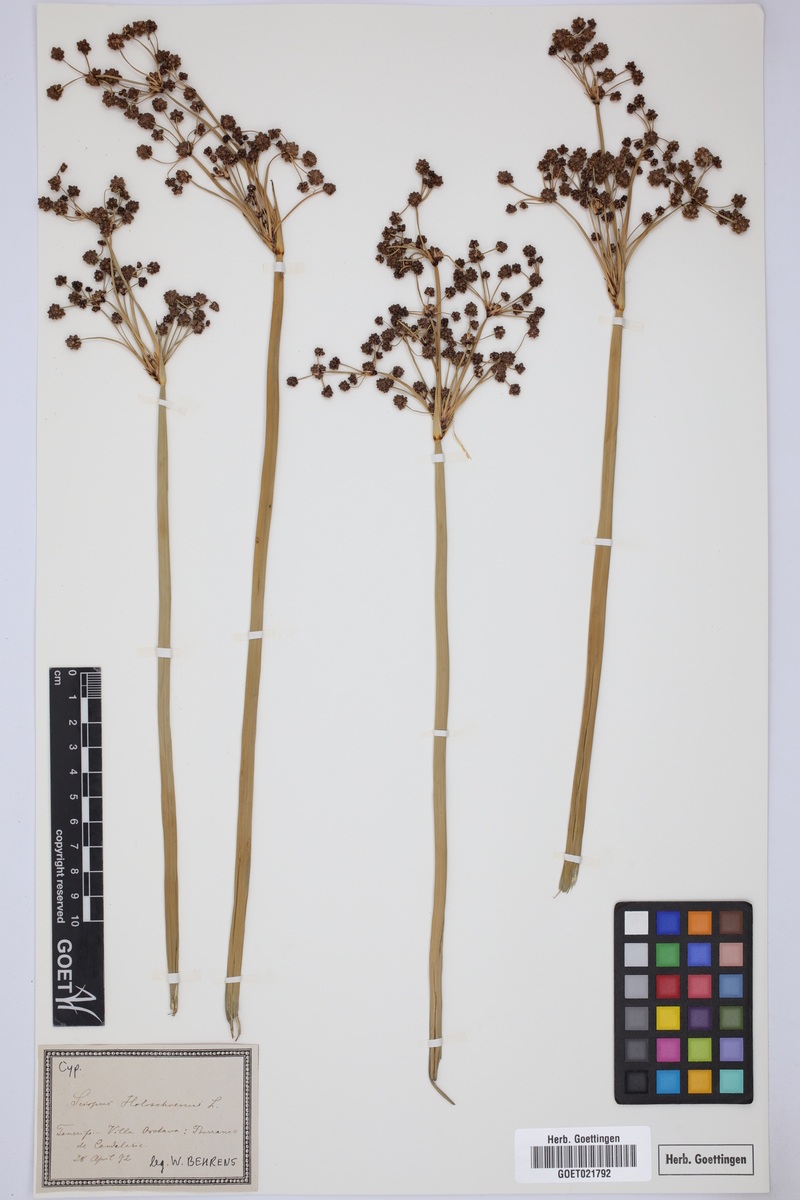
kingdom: Plantae
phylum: Tracheophyta
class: Liliopsida
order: Poales
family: Cyperaceae
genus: Scirpoides
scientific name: Scirpoides holoschoenus
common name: Round-headed club-rush
